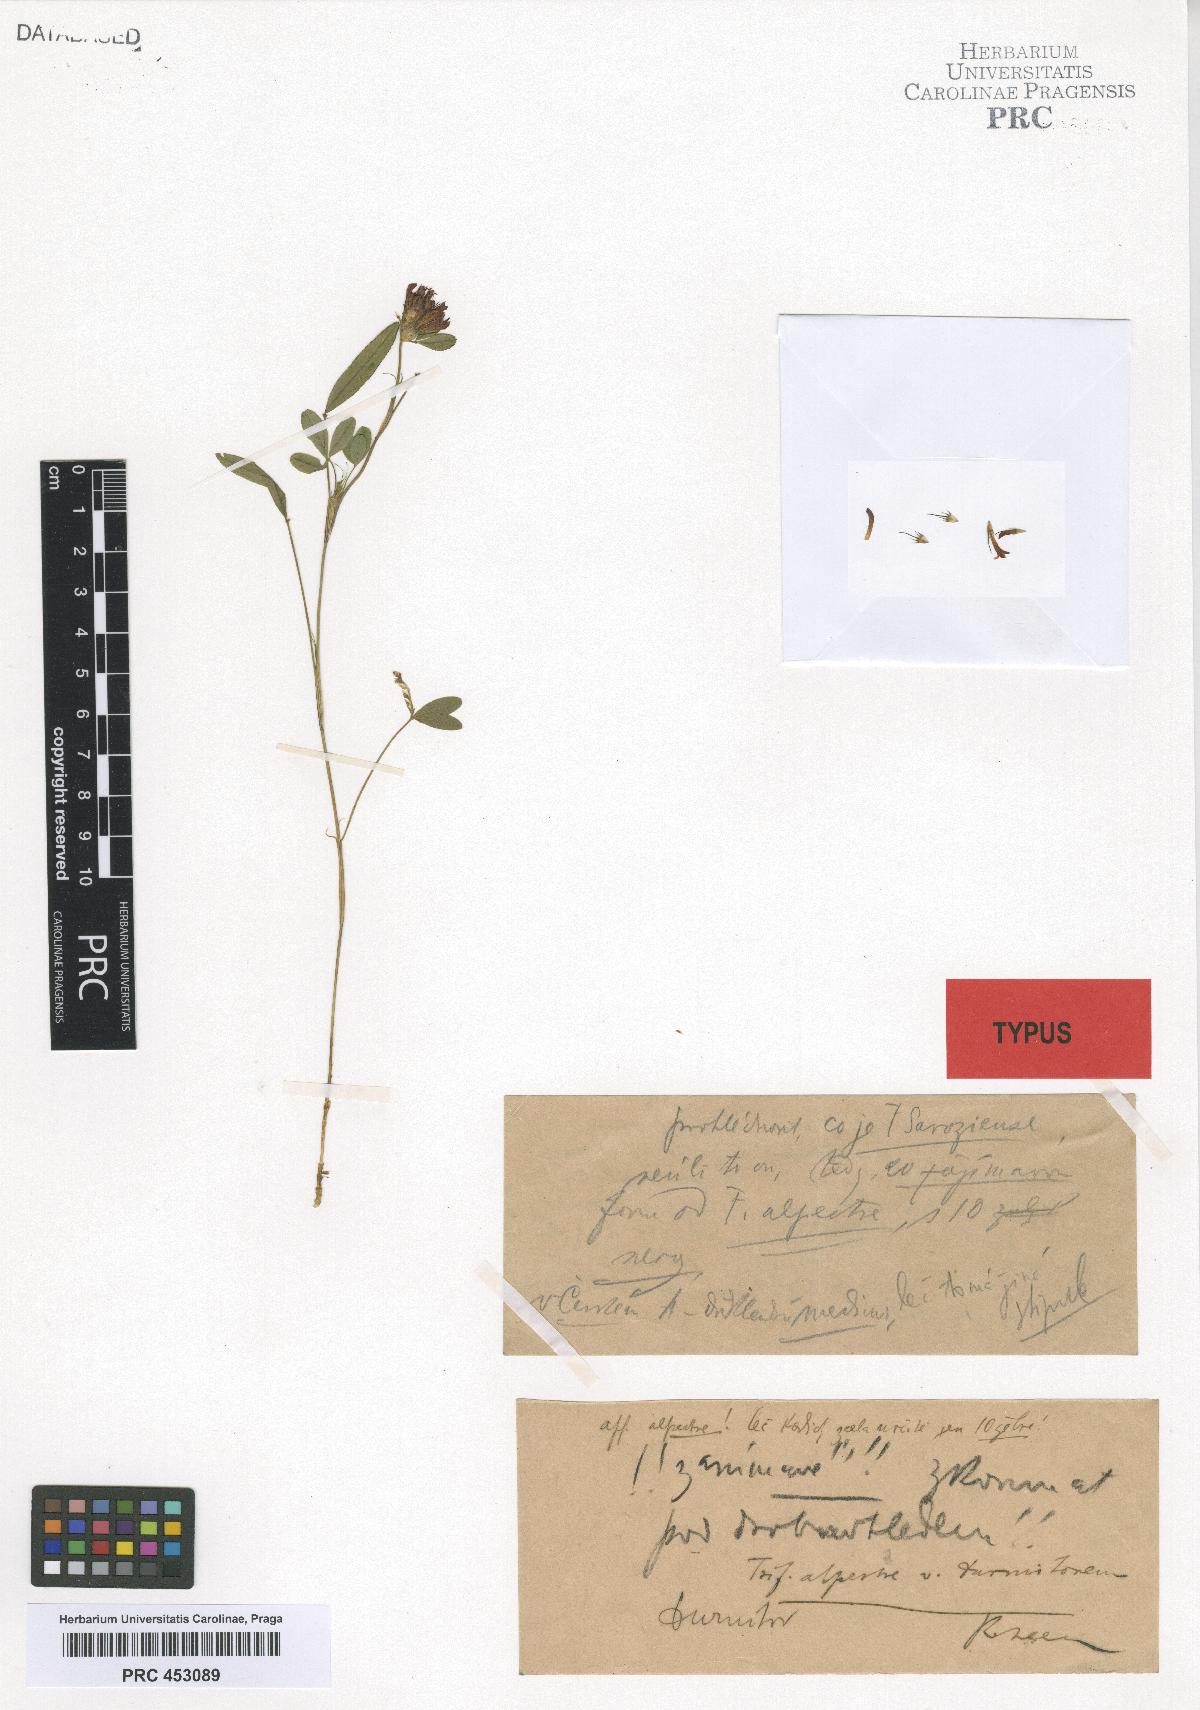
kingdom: Plantae
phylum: Tracheophyta
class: Magnoliopsida
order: Fabales
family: Fabaceae
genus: Trifolium
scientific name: Trifolium alpestre
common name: Owl-head clover
